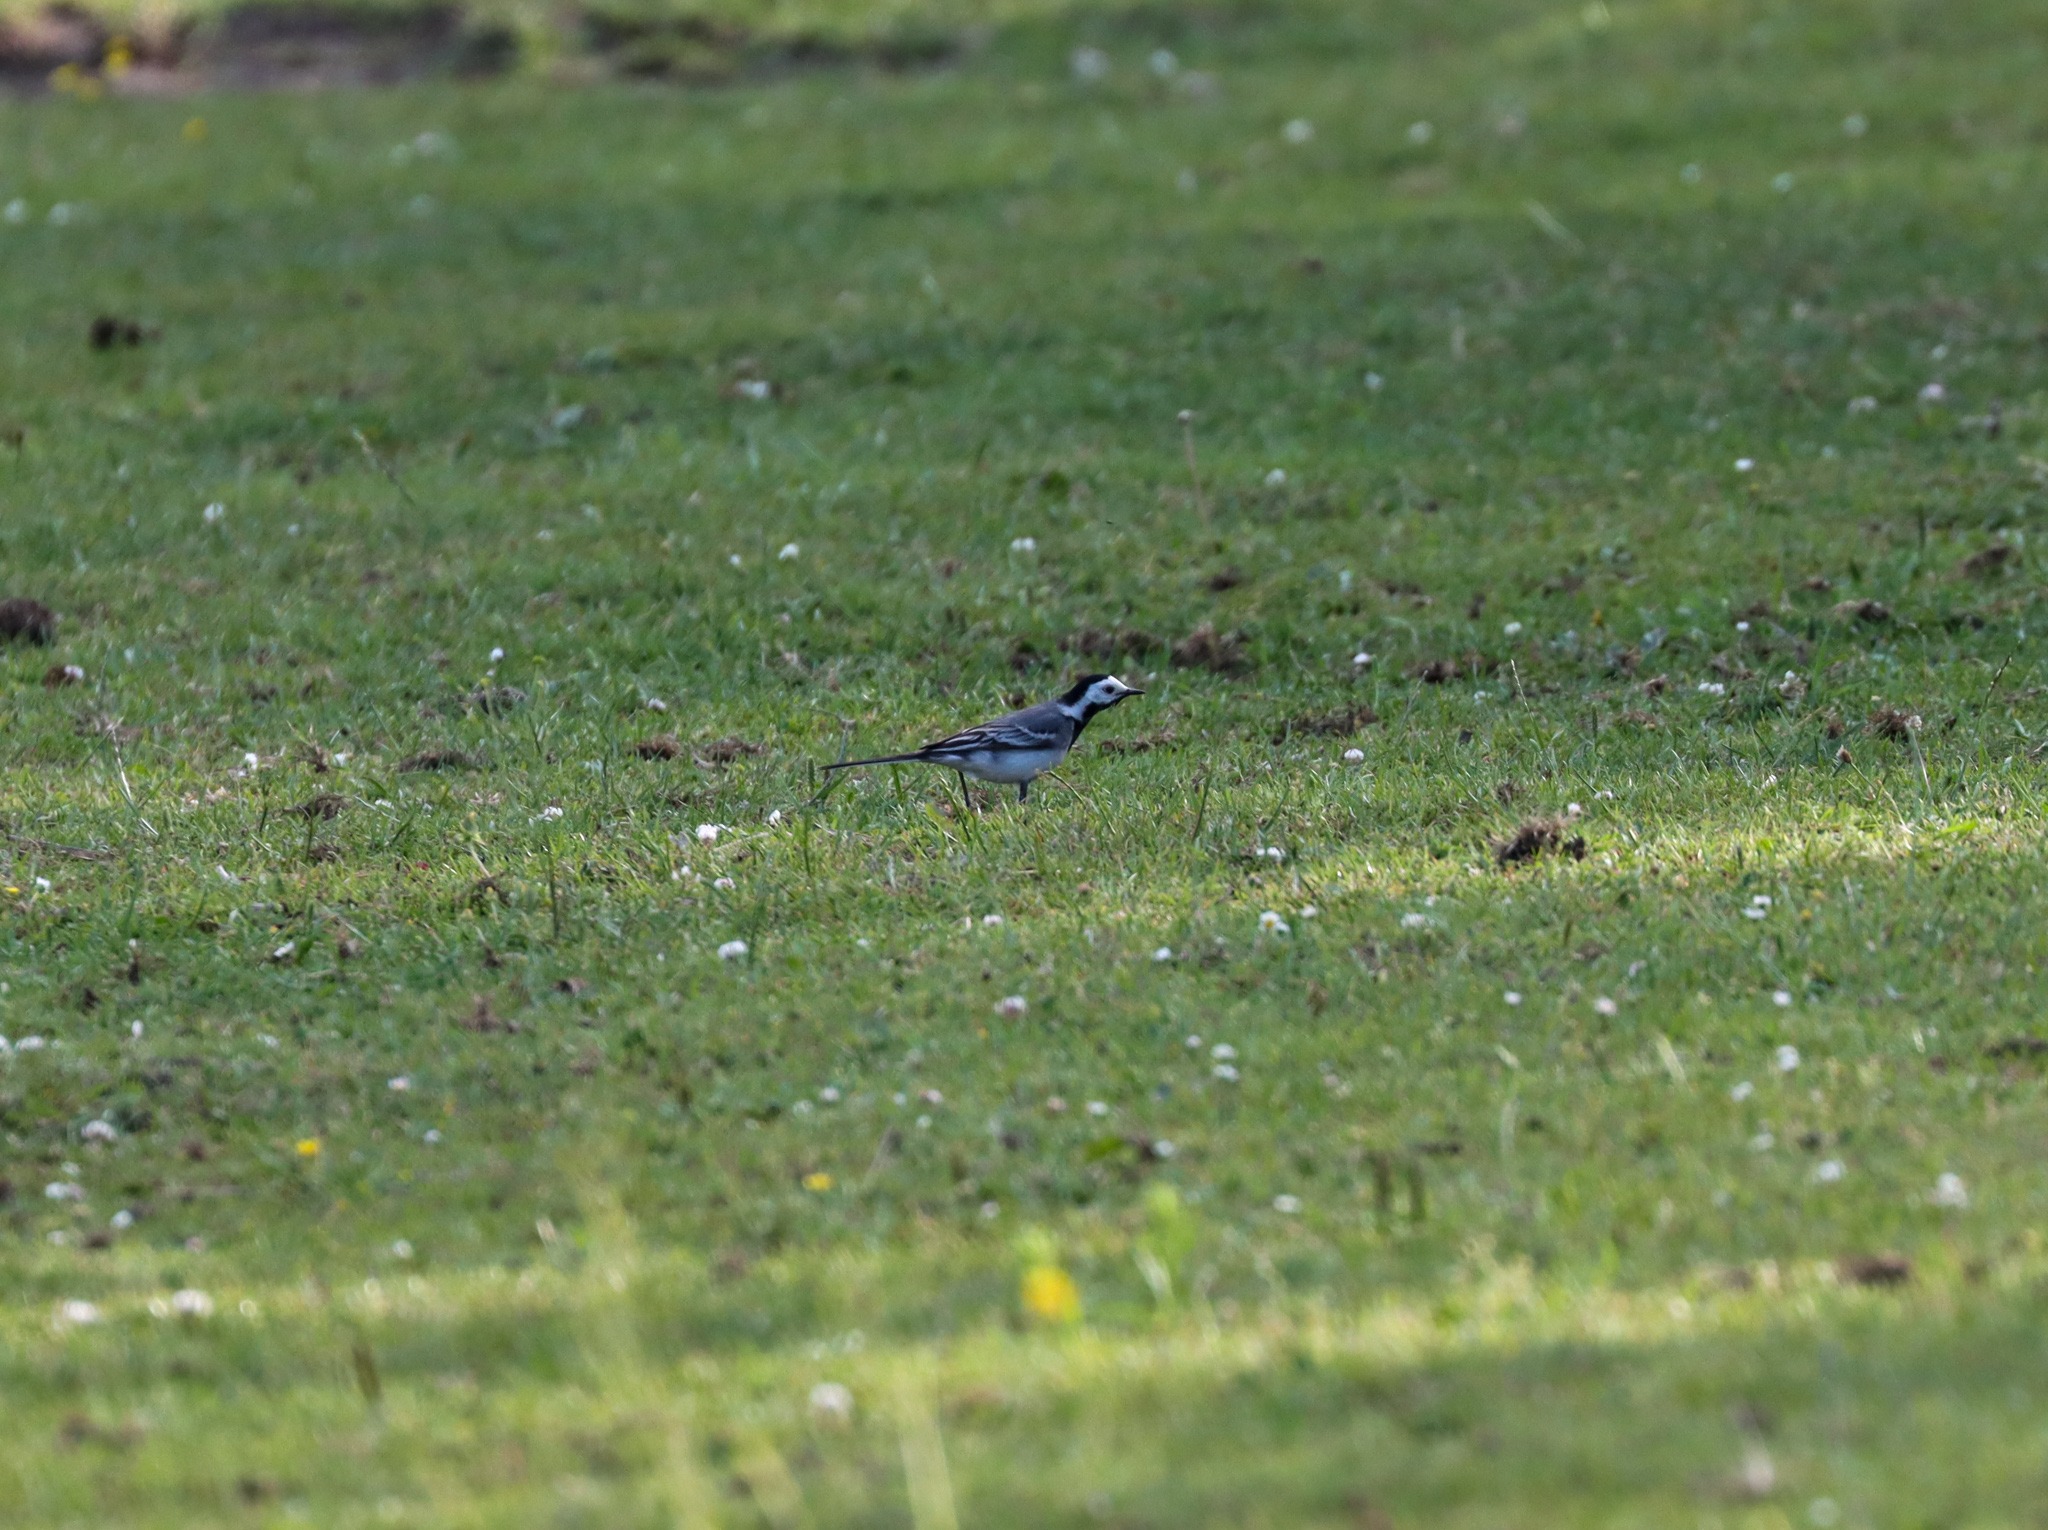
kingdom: Animalia
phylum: Chordata
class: Aves
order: Passeriformes
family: Motacillidae
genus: Motacilla
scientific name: Motacilla alba
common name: Hvid vipstjert
